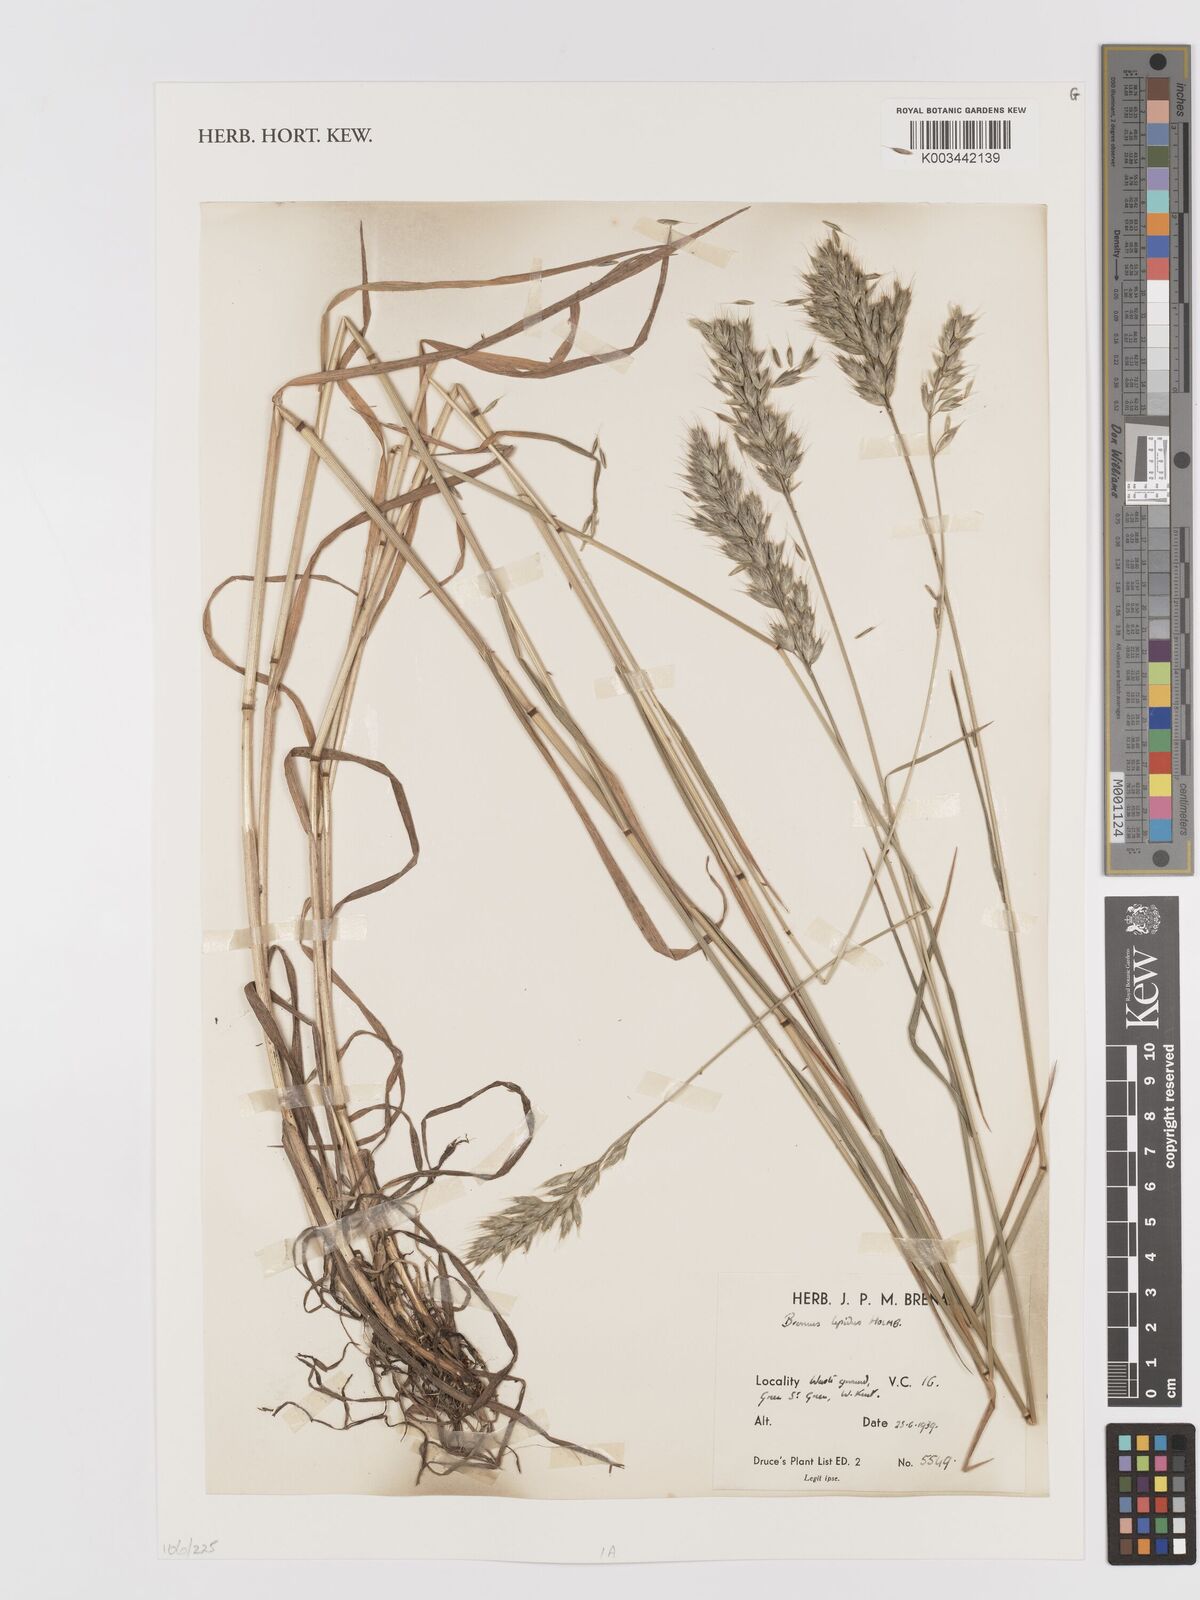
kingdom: Plantae
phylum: Tracheophyta
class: Liliopsida
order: Poales
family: Poaceae
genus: Bromus
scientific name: Bromus lepidus
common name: Slender soft-brome
